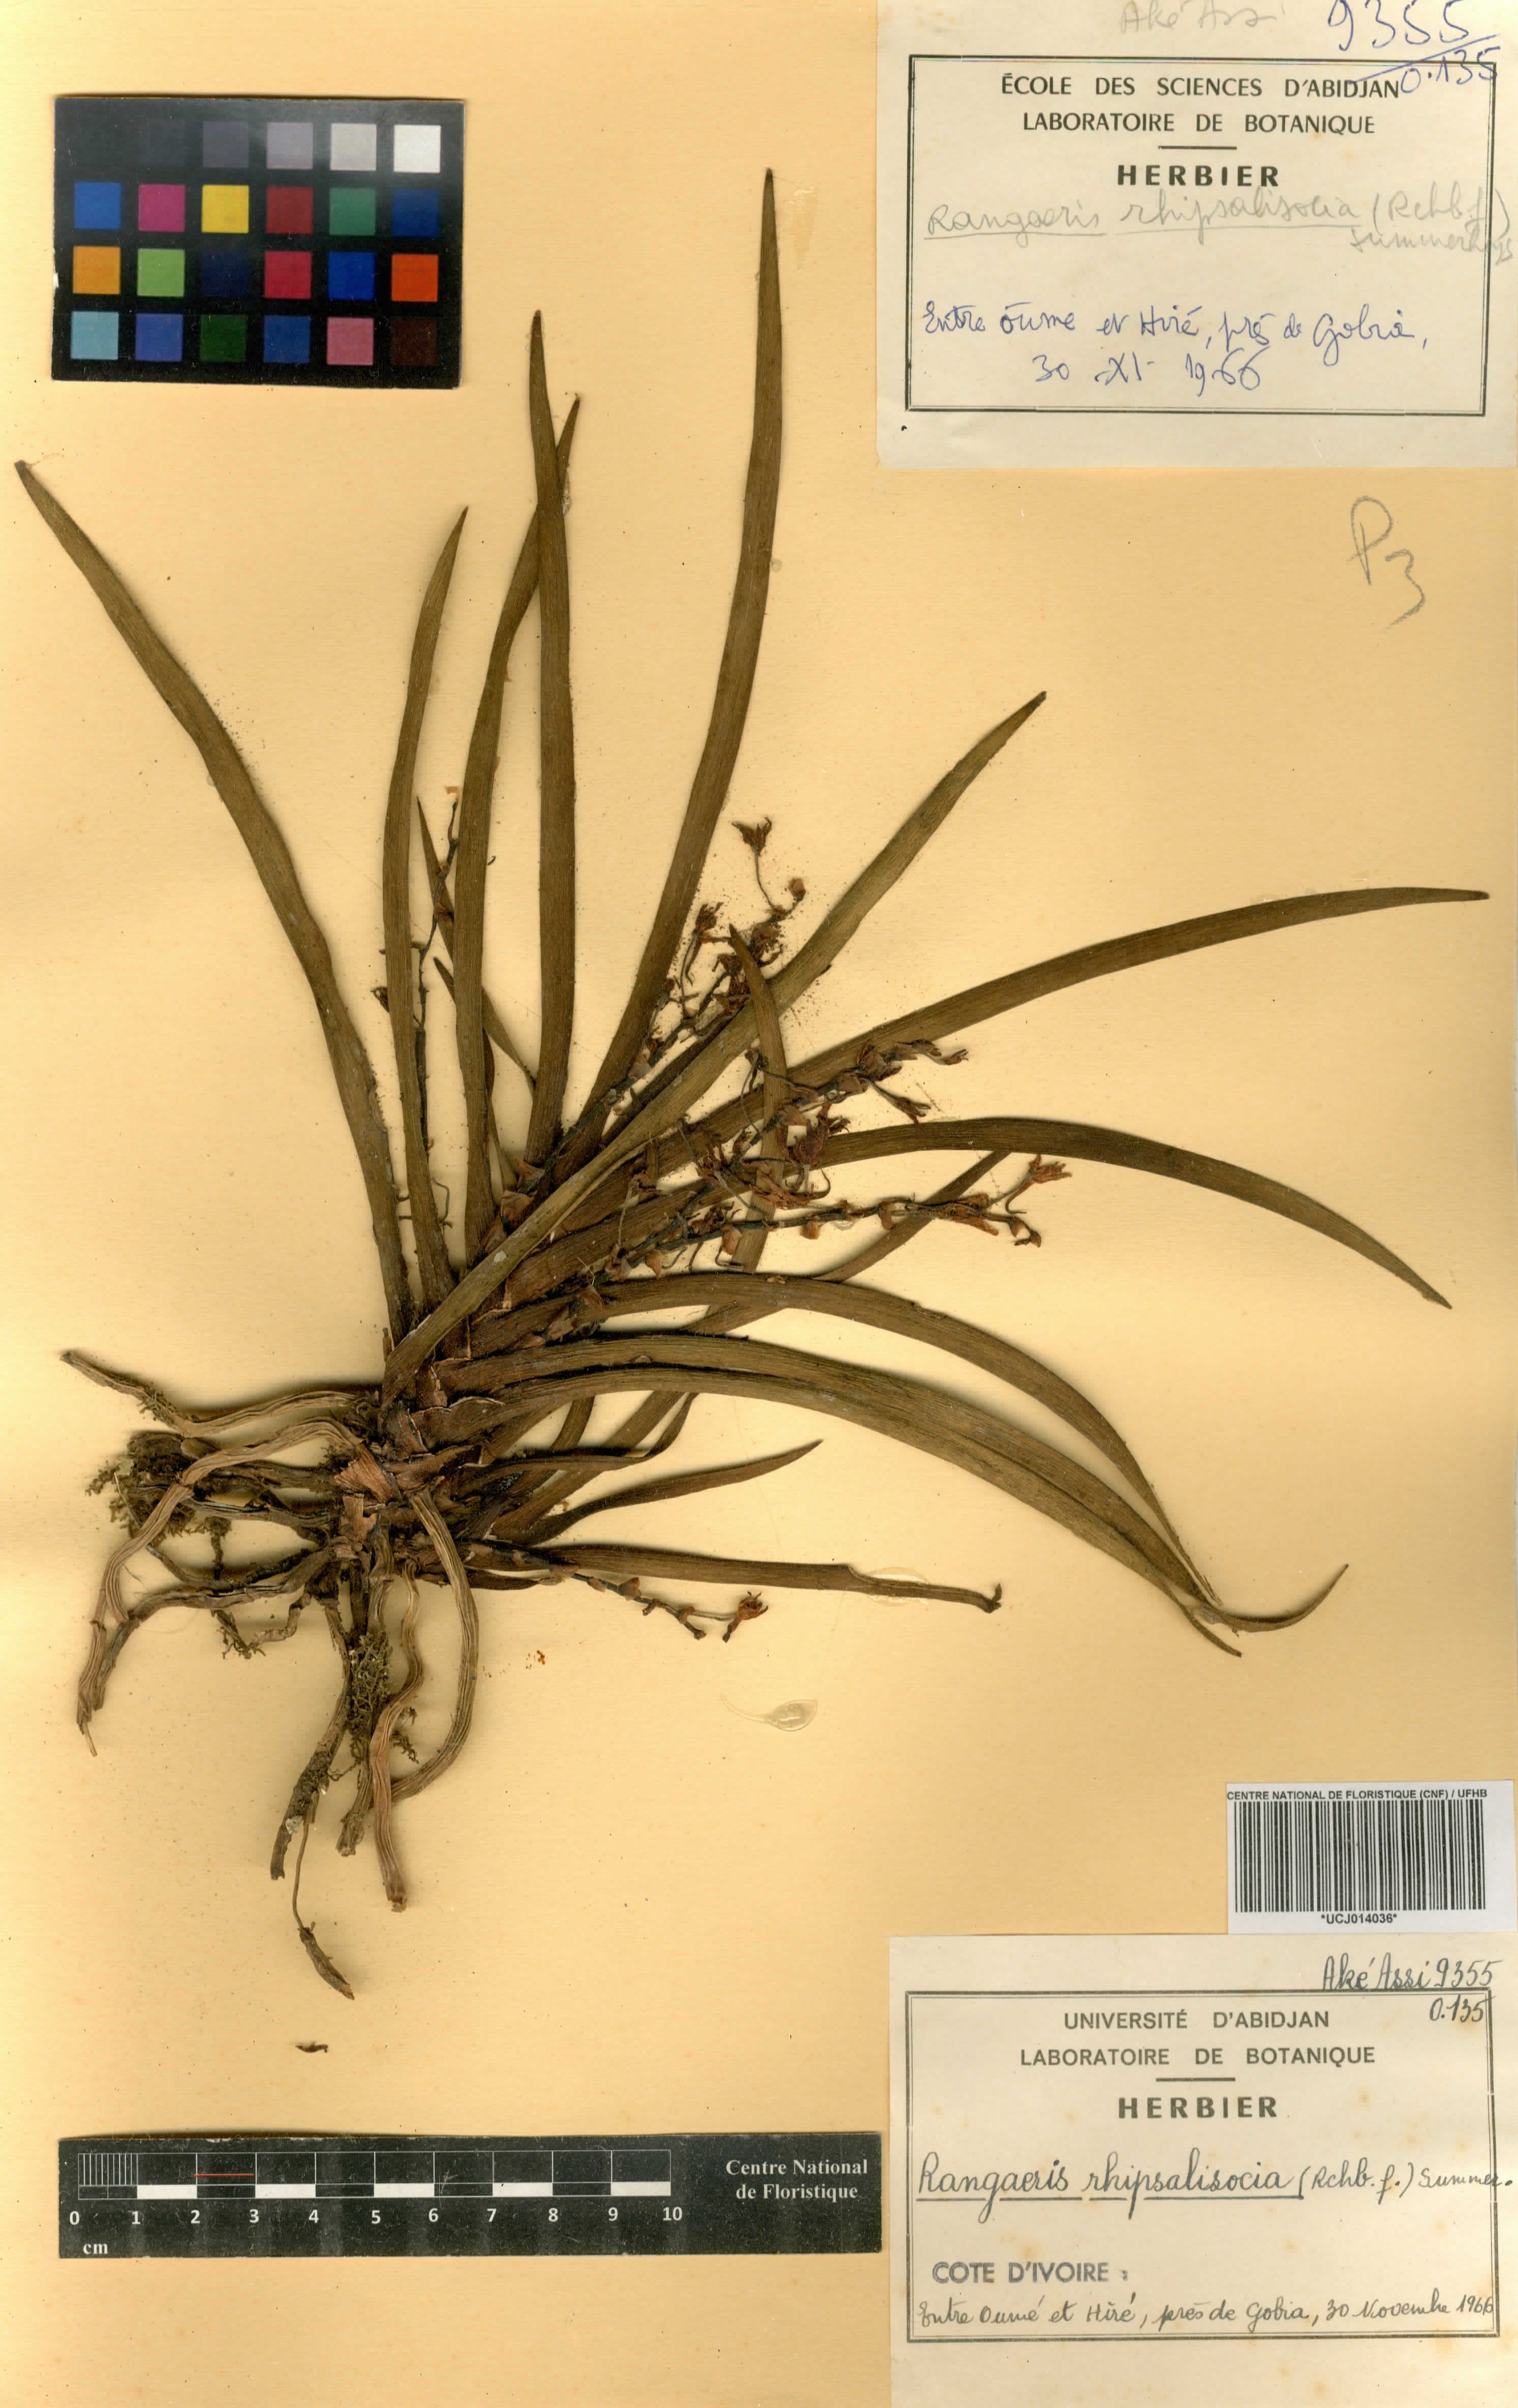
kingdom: Plantae
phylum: Tracheophyta
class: Liliopsida
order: Asparagales
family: Orchidaceae
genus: Podangis
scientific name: Podangis rhipsalisocia
